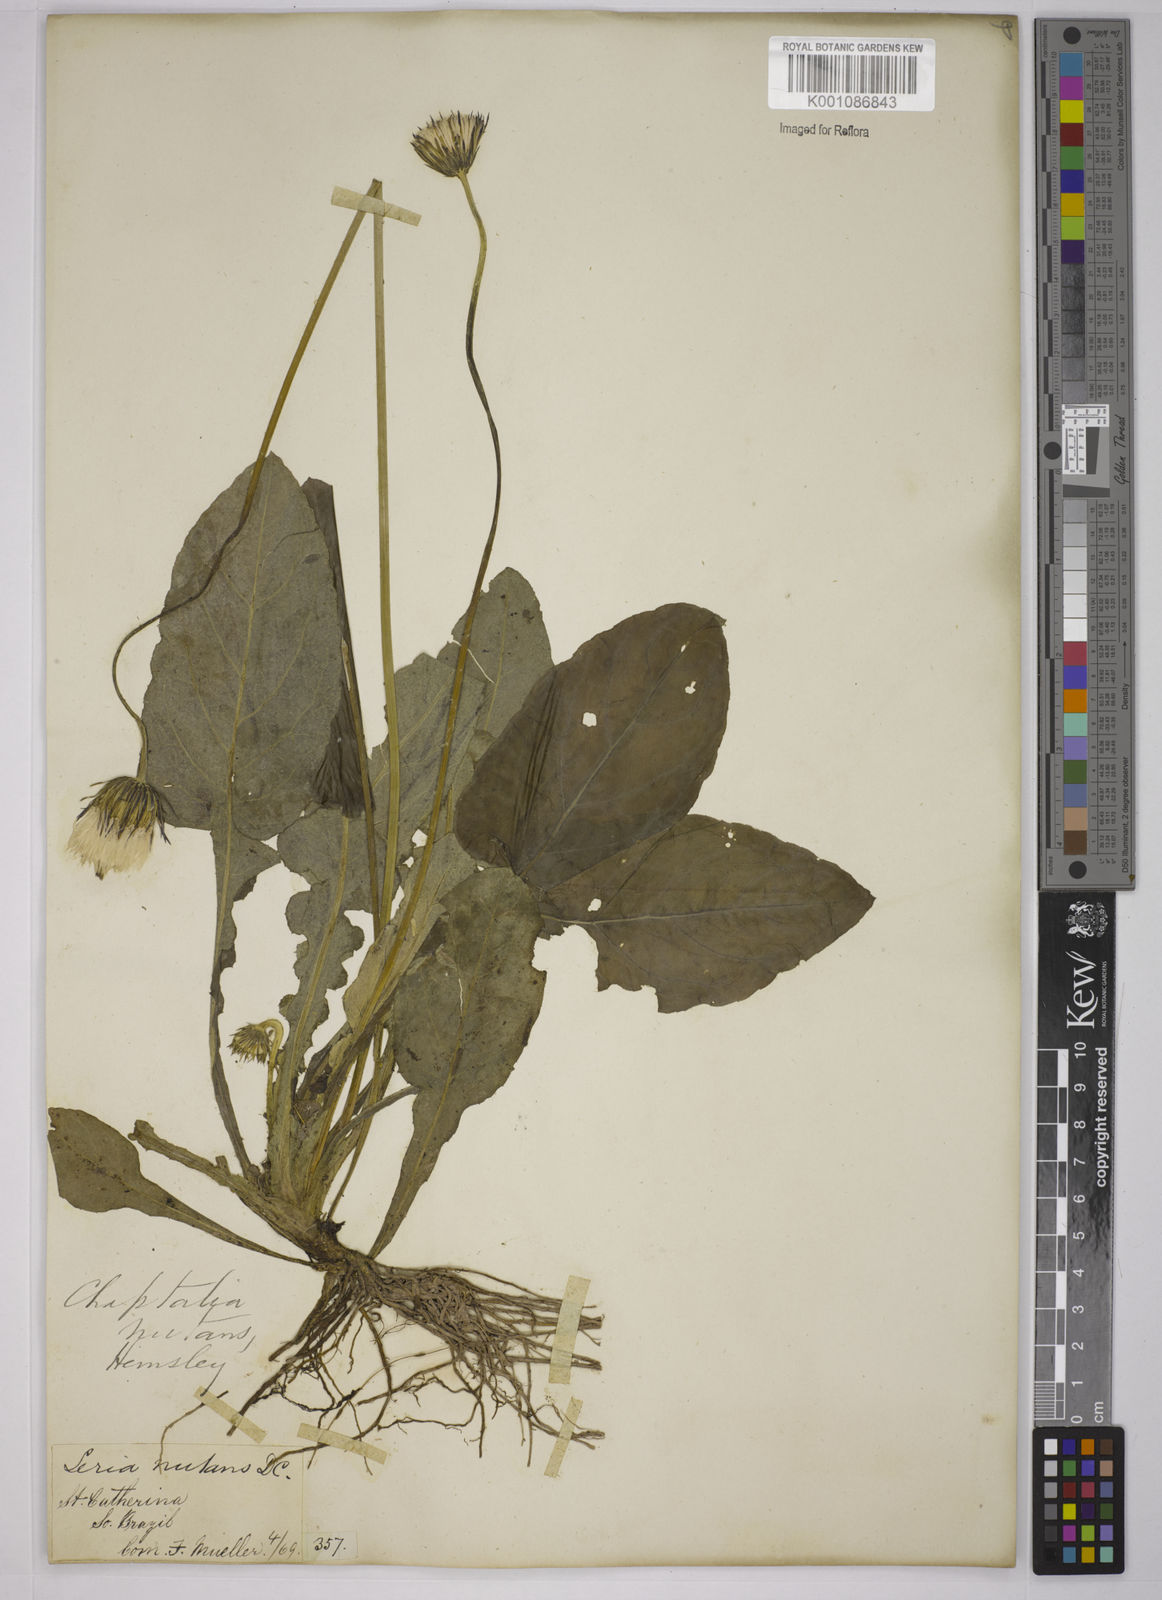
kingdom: Plantae
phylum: Tracheophyta
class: Magnoliopsida
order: Asterales
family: Asteraceae
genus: Chaptalia
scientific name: Chaptalia nutans
